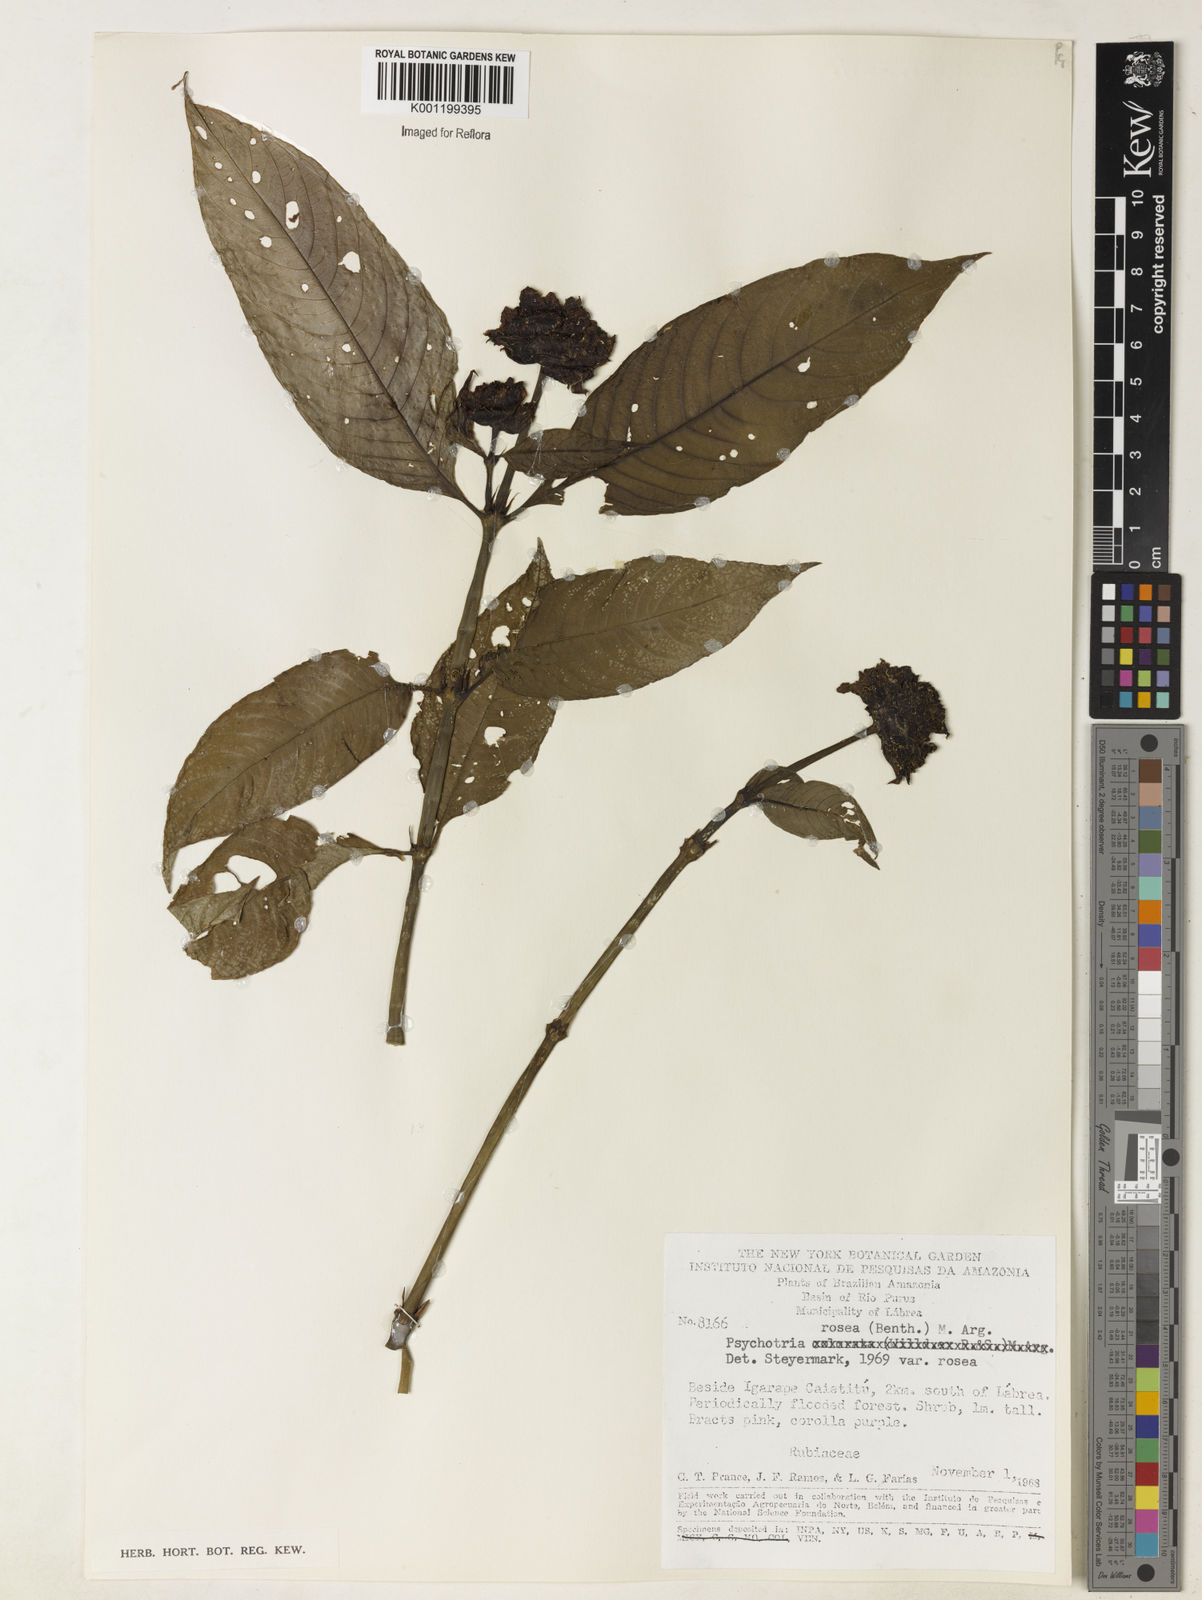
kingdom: Plantae
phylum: Tracheophyta
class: Magnoliopsida
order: Gentianales
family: Rubiaceae
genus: Psychotria
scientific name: Psychotria
